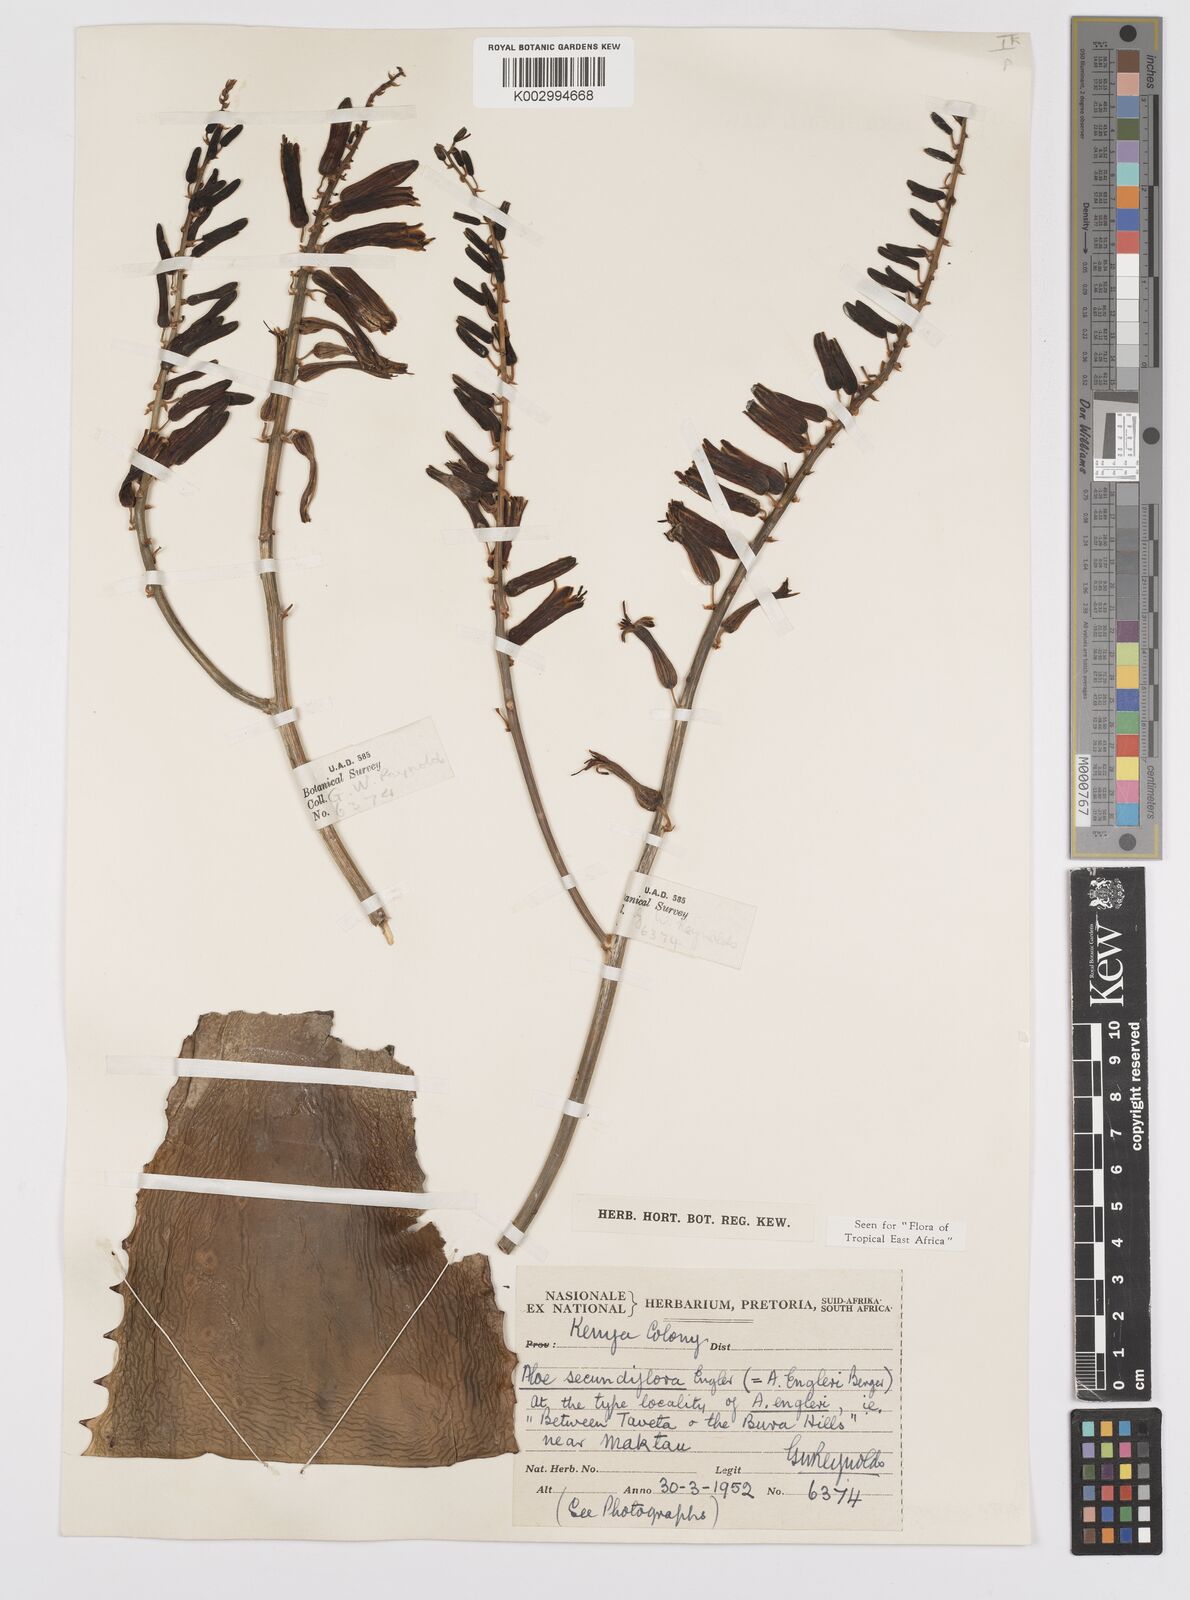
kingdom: Plantae
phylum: Tracheophyta
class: Liliopsida
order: Asparagales
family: Asphodelaceae
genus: Aloe
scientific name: Aloe secundiflora
